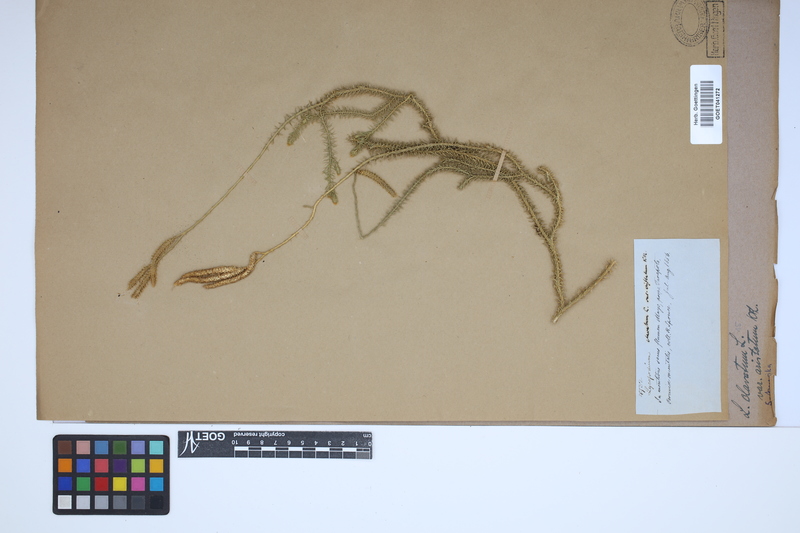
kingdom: Plantae
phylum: Tracheophyta
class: Lycopodiopsida
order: Lycopodiales
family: Lycopodiaceae
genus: Lycopodium
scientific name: Lycopodium clavatum
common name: Stag's-horn clubmoss
